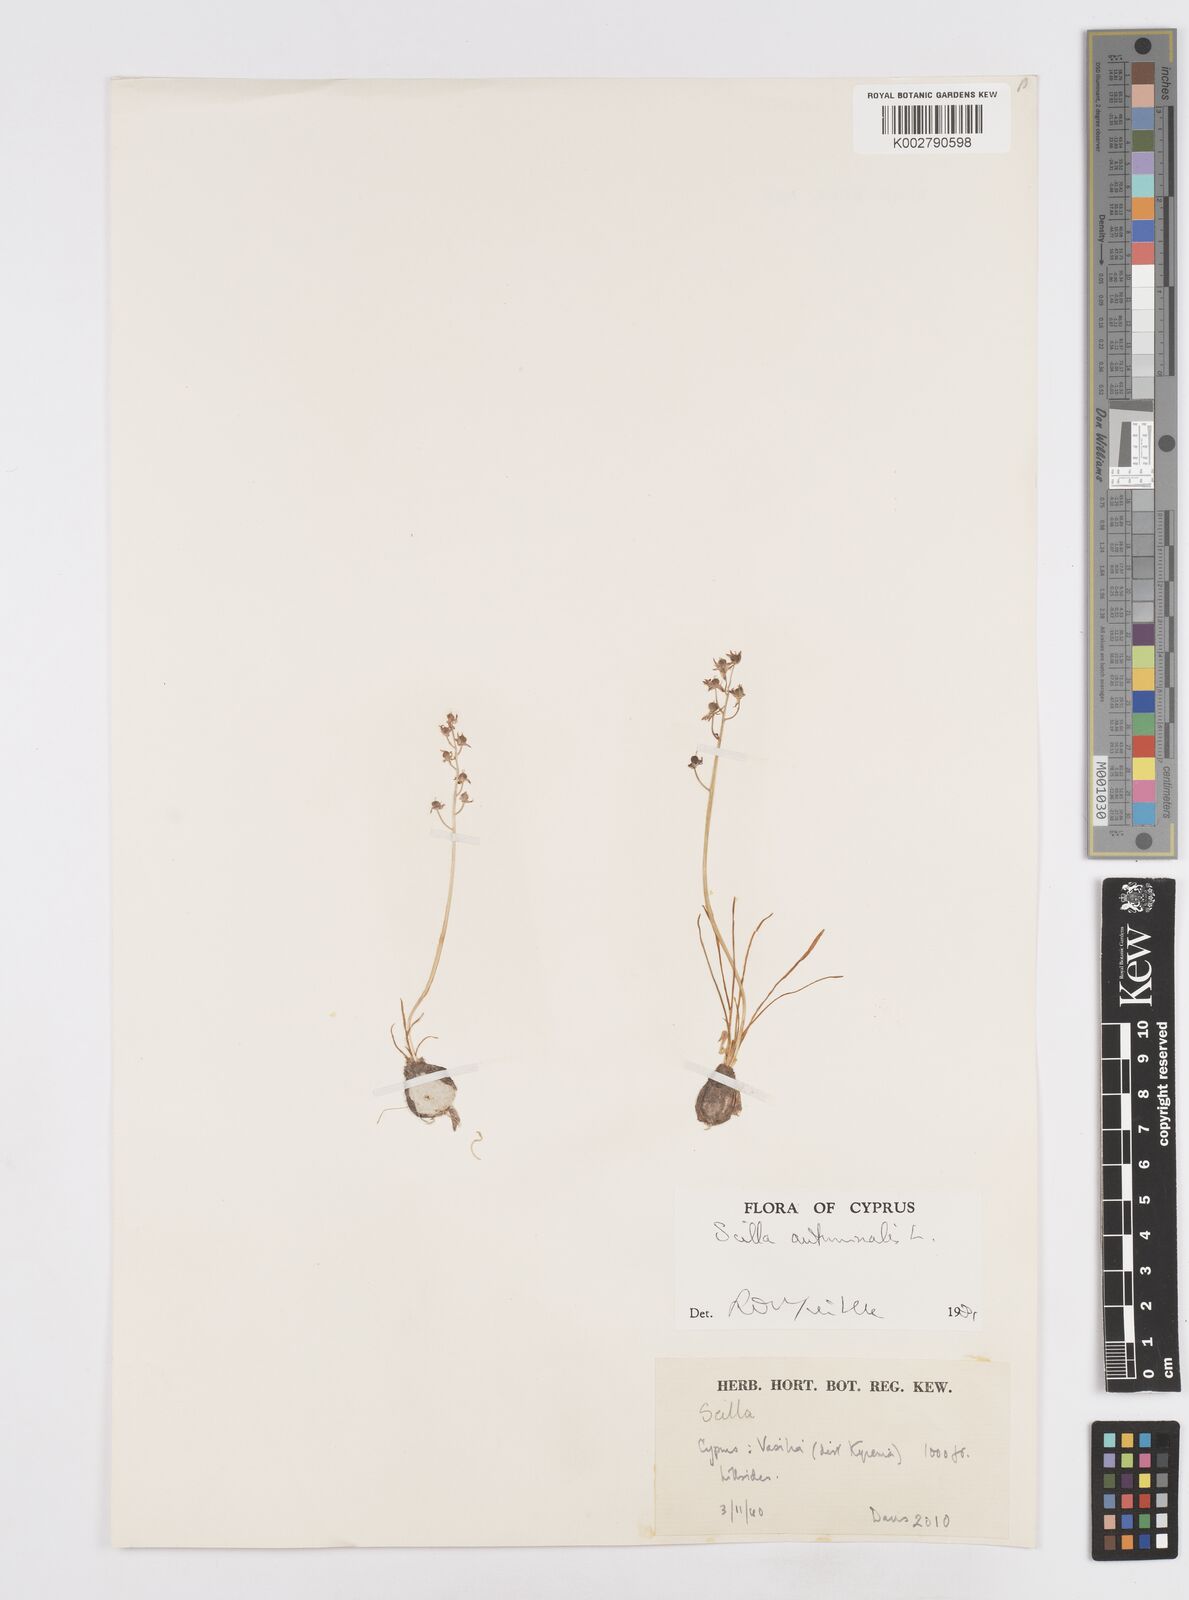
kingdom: Plantae
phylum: Tracheophyta
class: Liliopsida
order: Asparagales
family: Asparagaceae
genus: Prospero
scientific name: Prospero autumnale
